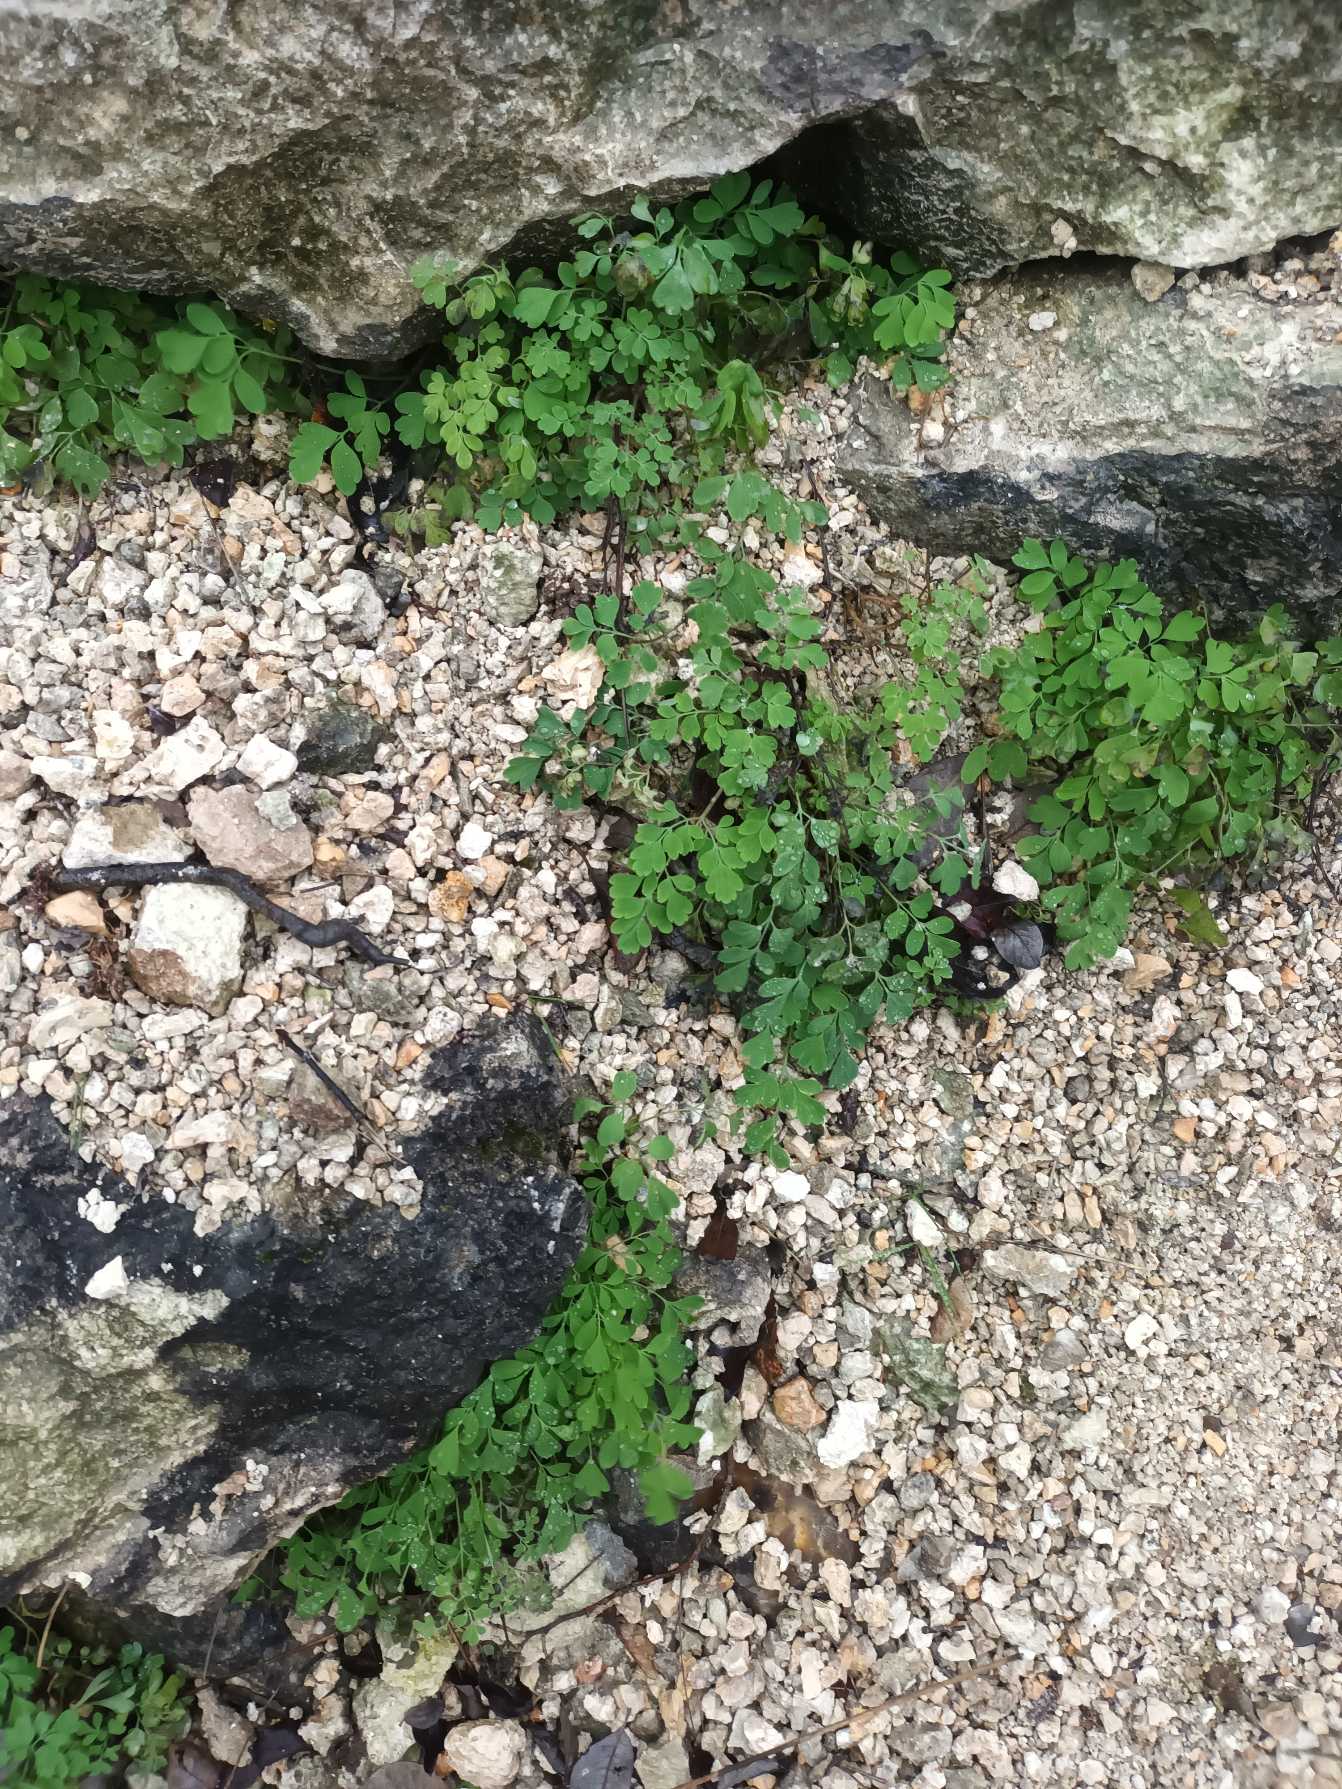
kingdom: Plantae
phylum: Tracheophyta
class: Magnoliopsida
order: Ranunculales
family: Papaveraceae
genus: Pseudofumaria
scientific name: Pseudofumaria lutea
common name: Gul lærkespore
